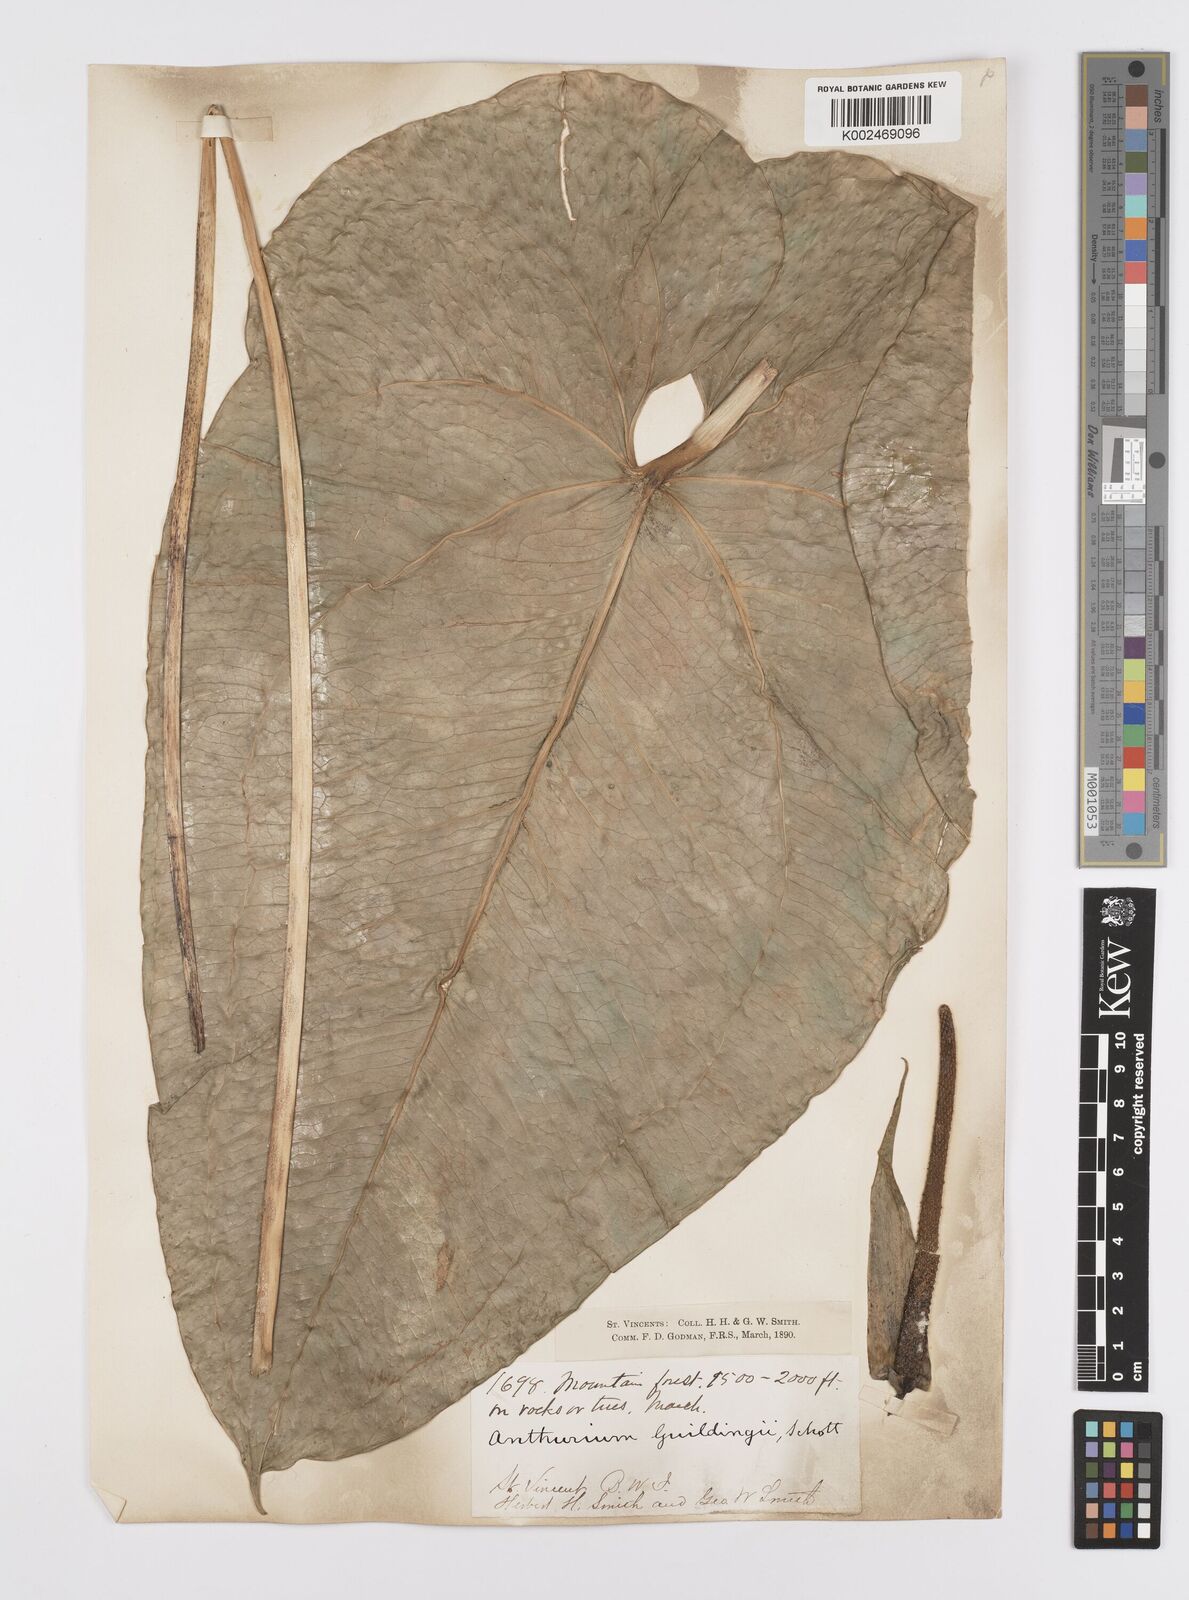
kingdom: Plantae
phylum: Tracheophyta
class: Liliopsida
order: Alismatales
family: Araceae
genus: Anthurium
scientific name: Anthurium
